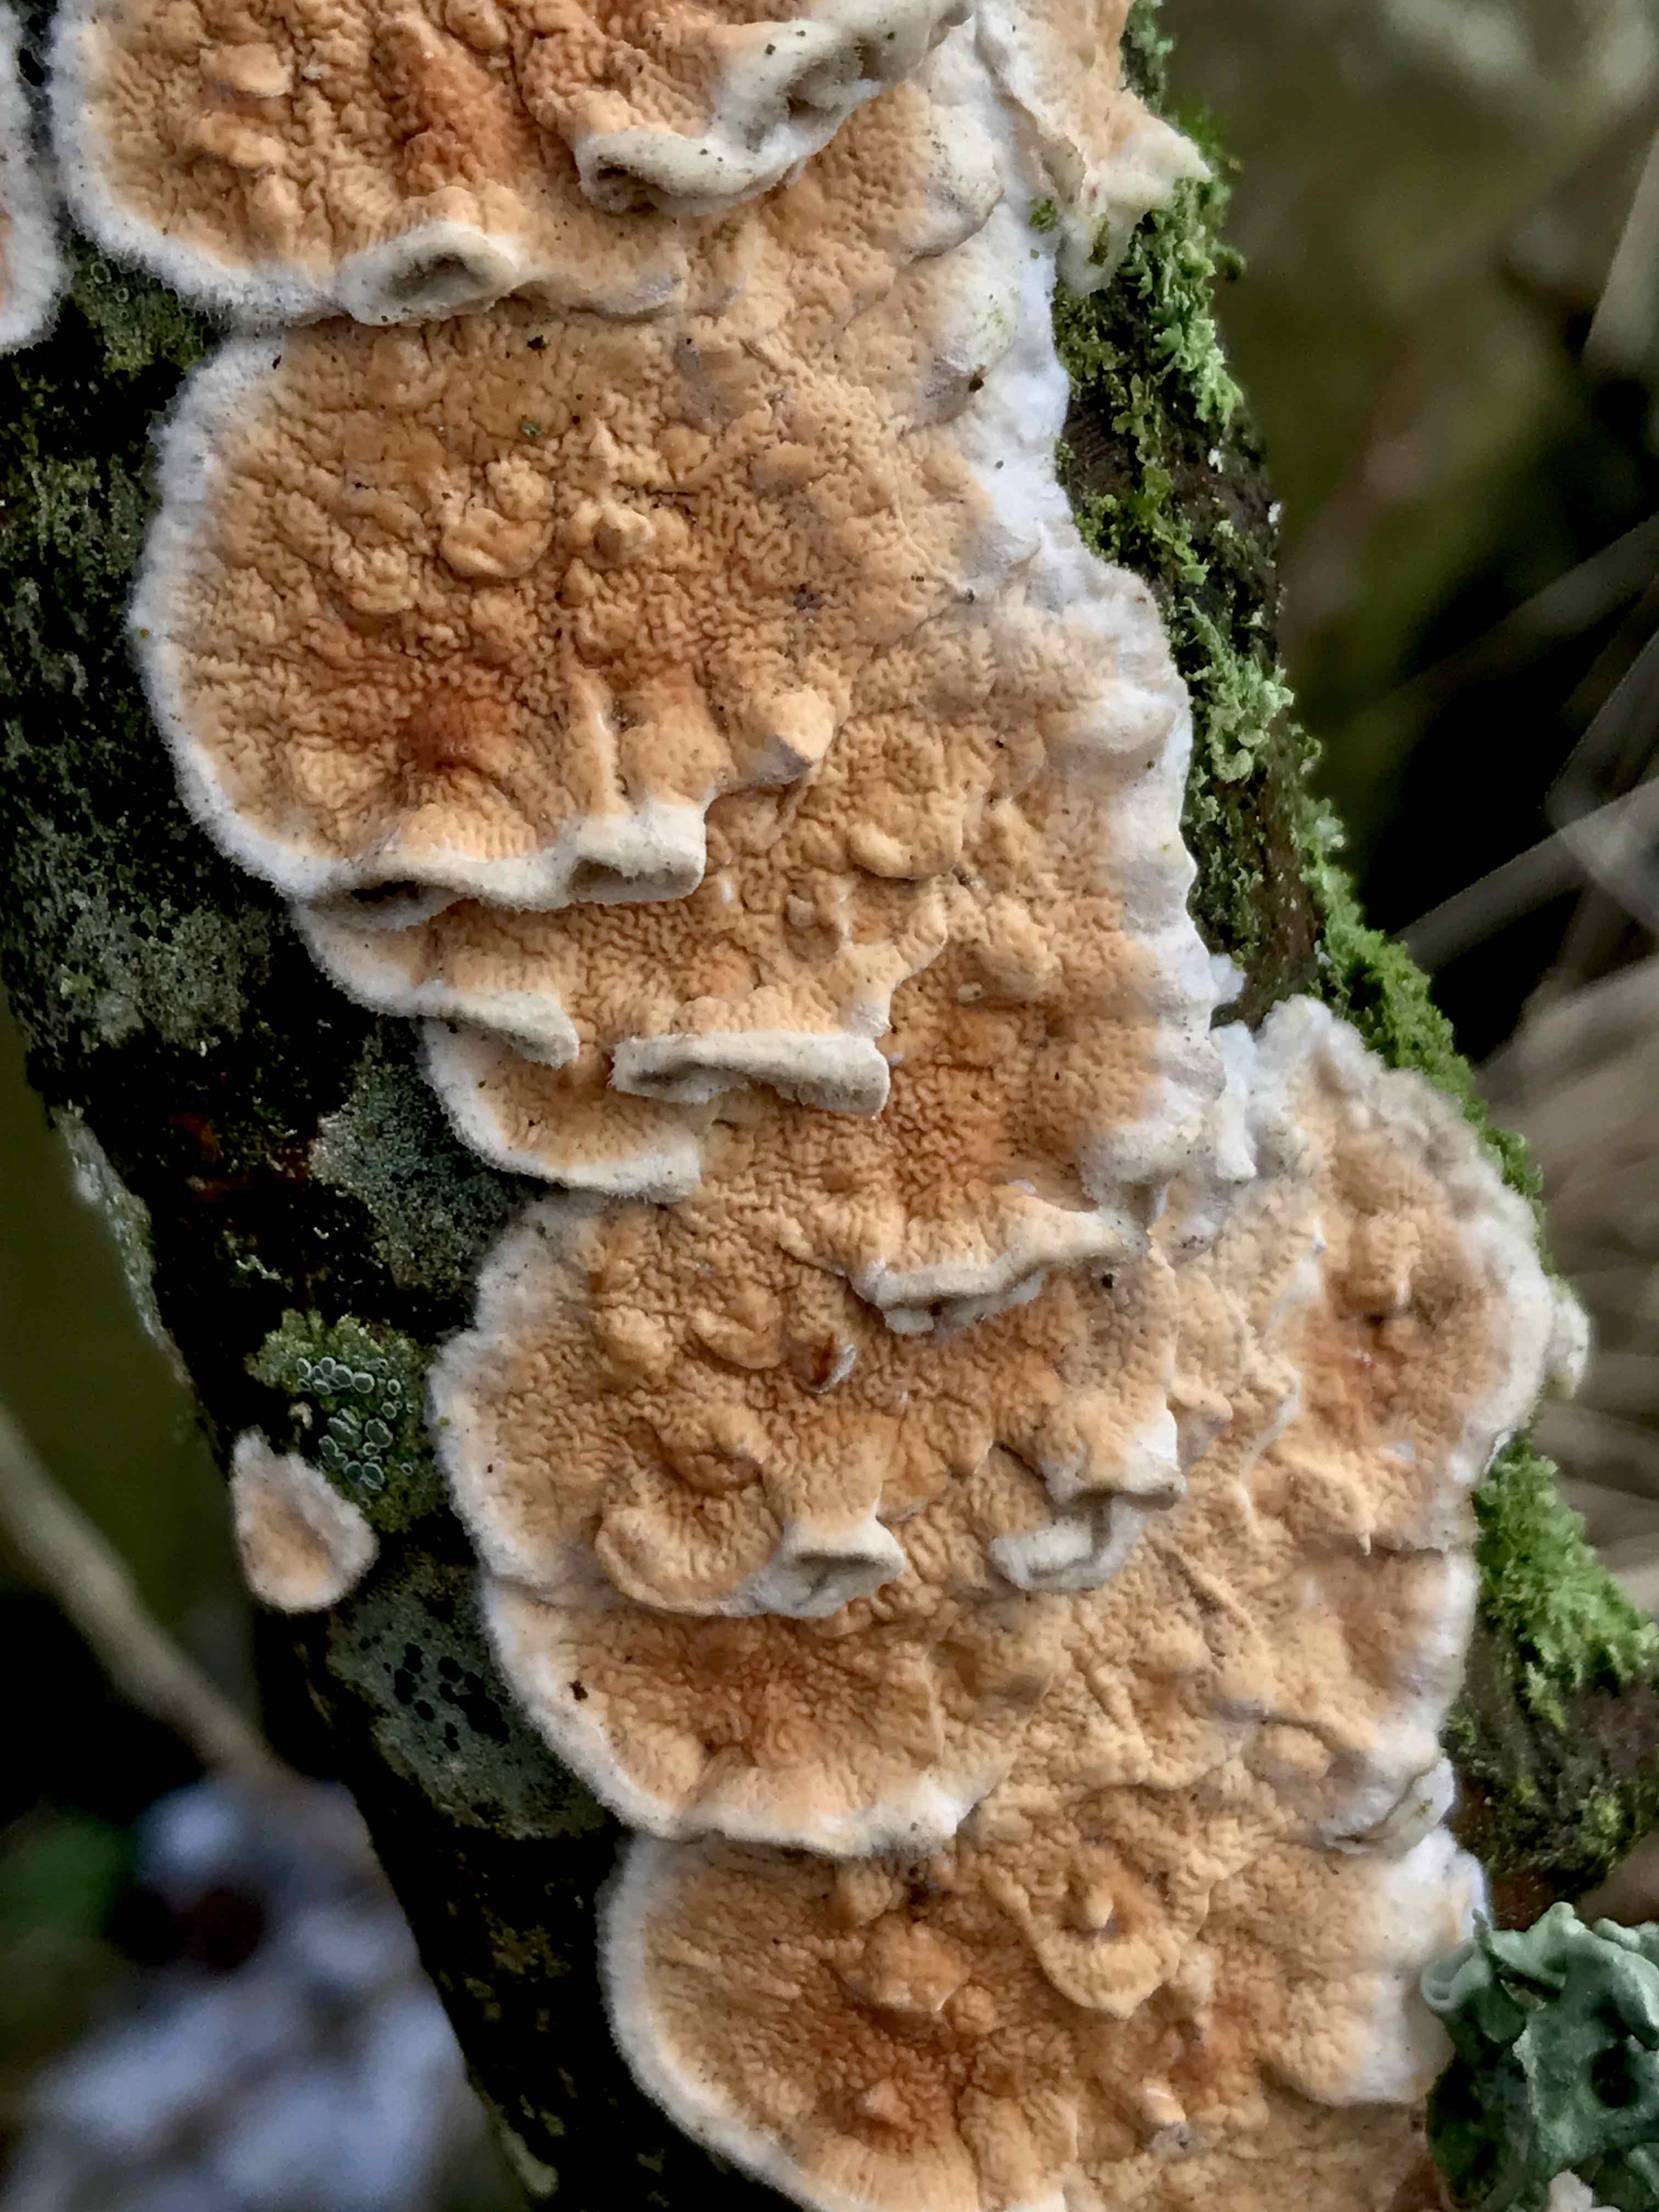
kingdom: Fungi
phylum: Basidiomycota
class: Agaricomycetes
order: Polyporales
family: Meruliaceae
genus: Phlebia
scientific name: Phlebia rufa
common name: ege-åresvamp
